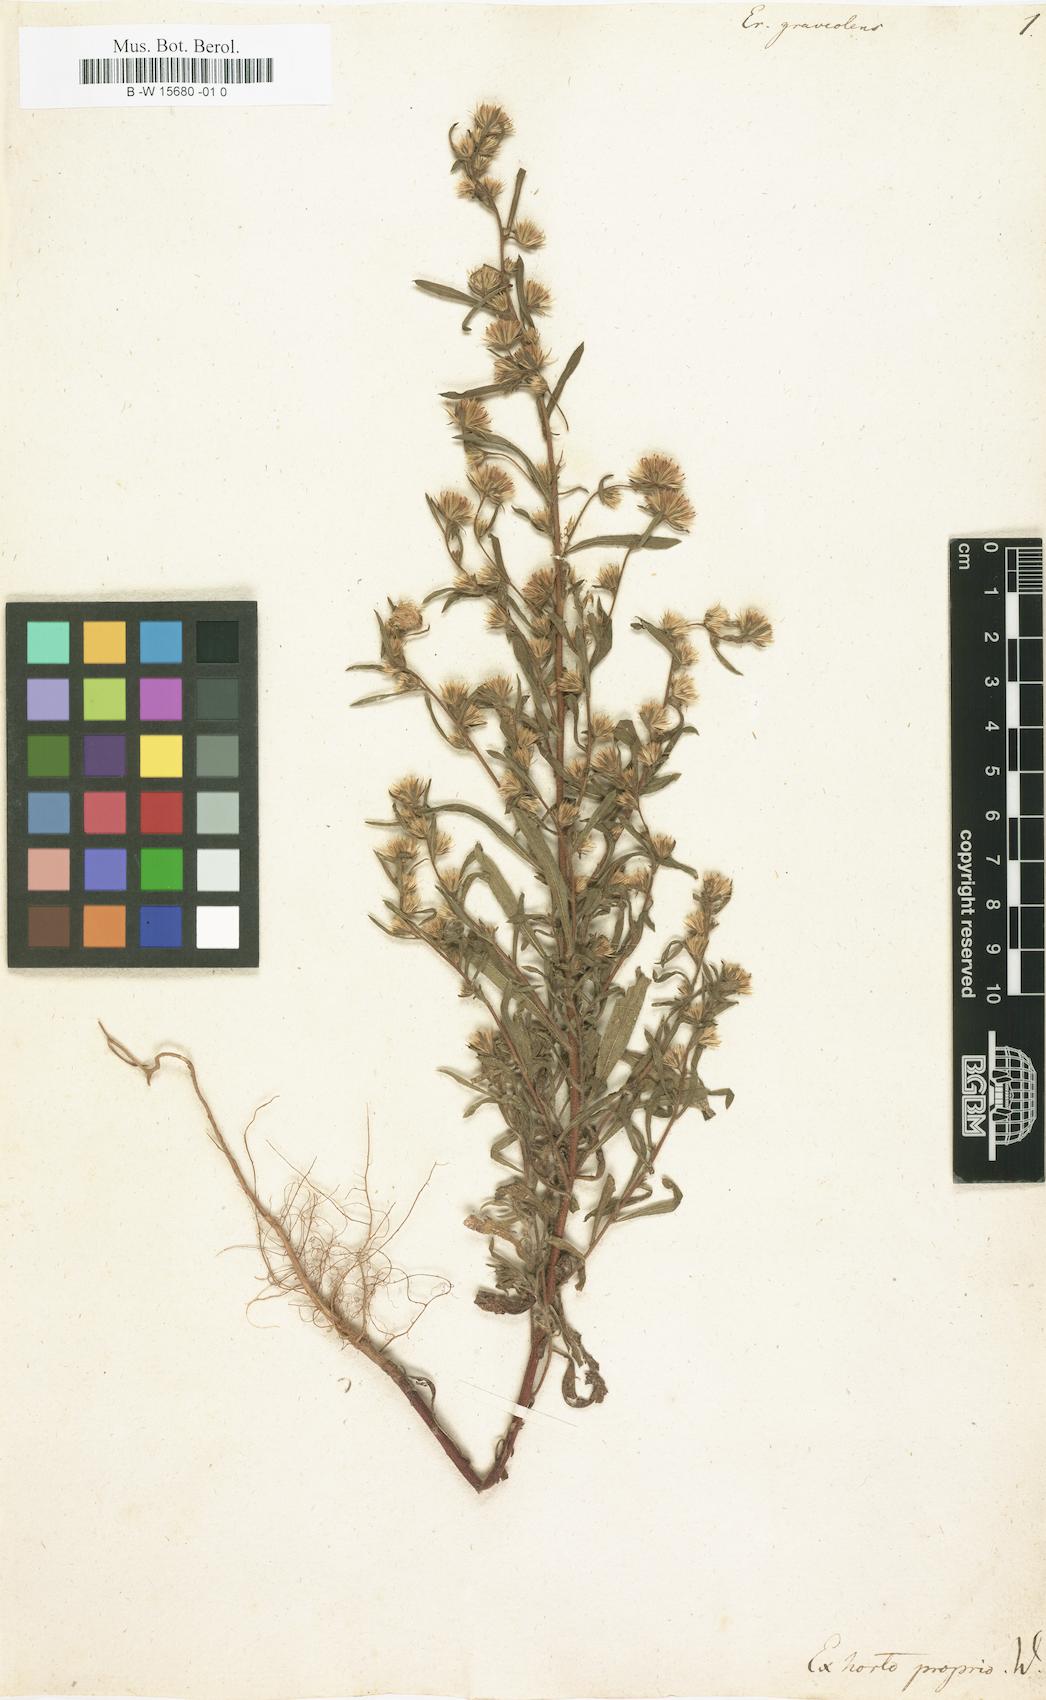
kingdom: Plantae
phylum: Tracheophyta
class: Magnoliopsida
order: Asterales
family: Asteraceae
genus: Dittrichia
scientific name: Dittrichia graveolens
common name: Stinking fleabane
